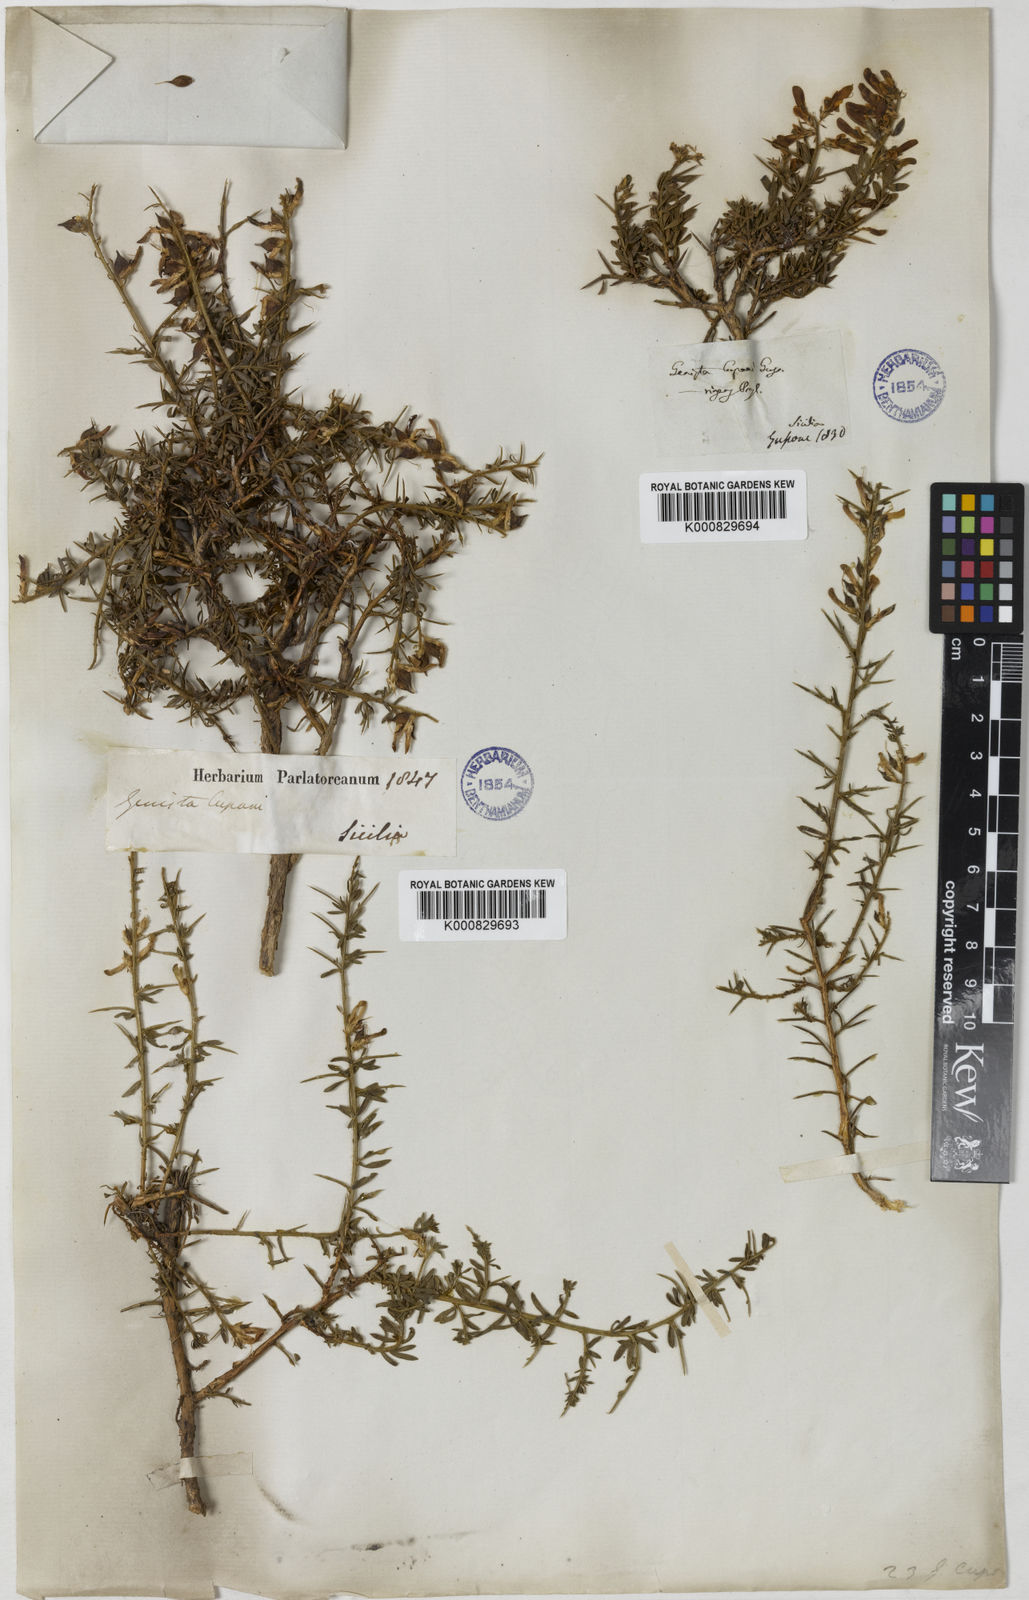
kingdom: Plantae
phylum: Tracheophyta
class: Magnoliopsida
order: Fabales
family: Fabaceae
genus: Genista
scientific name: Genista cupanii
